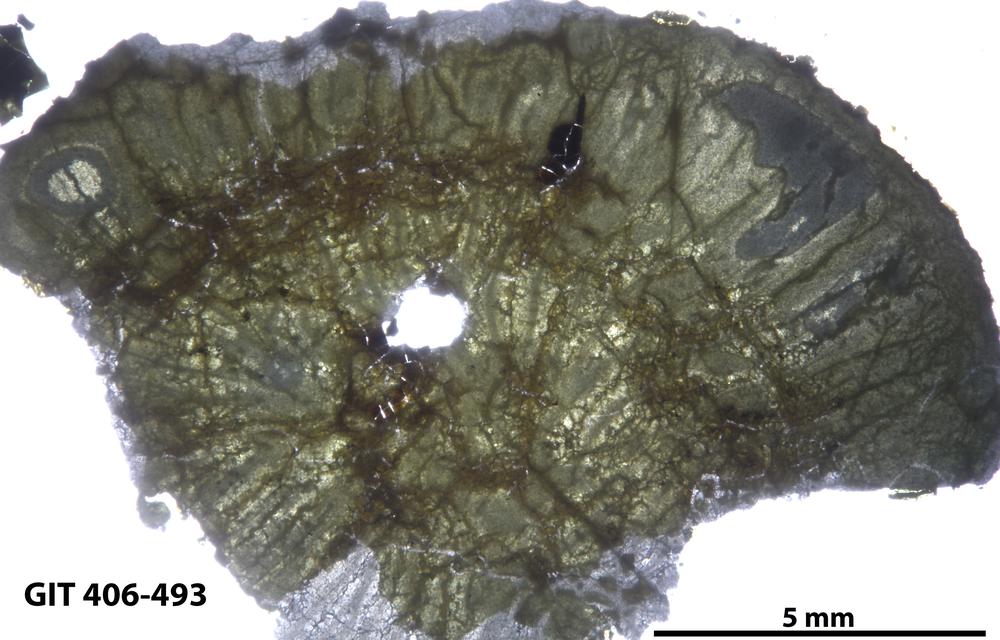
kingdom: Animalia
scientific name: Animalia
